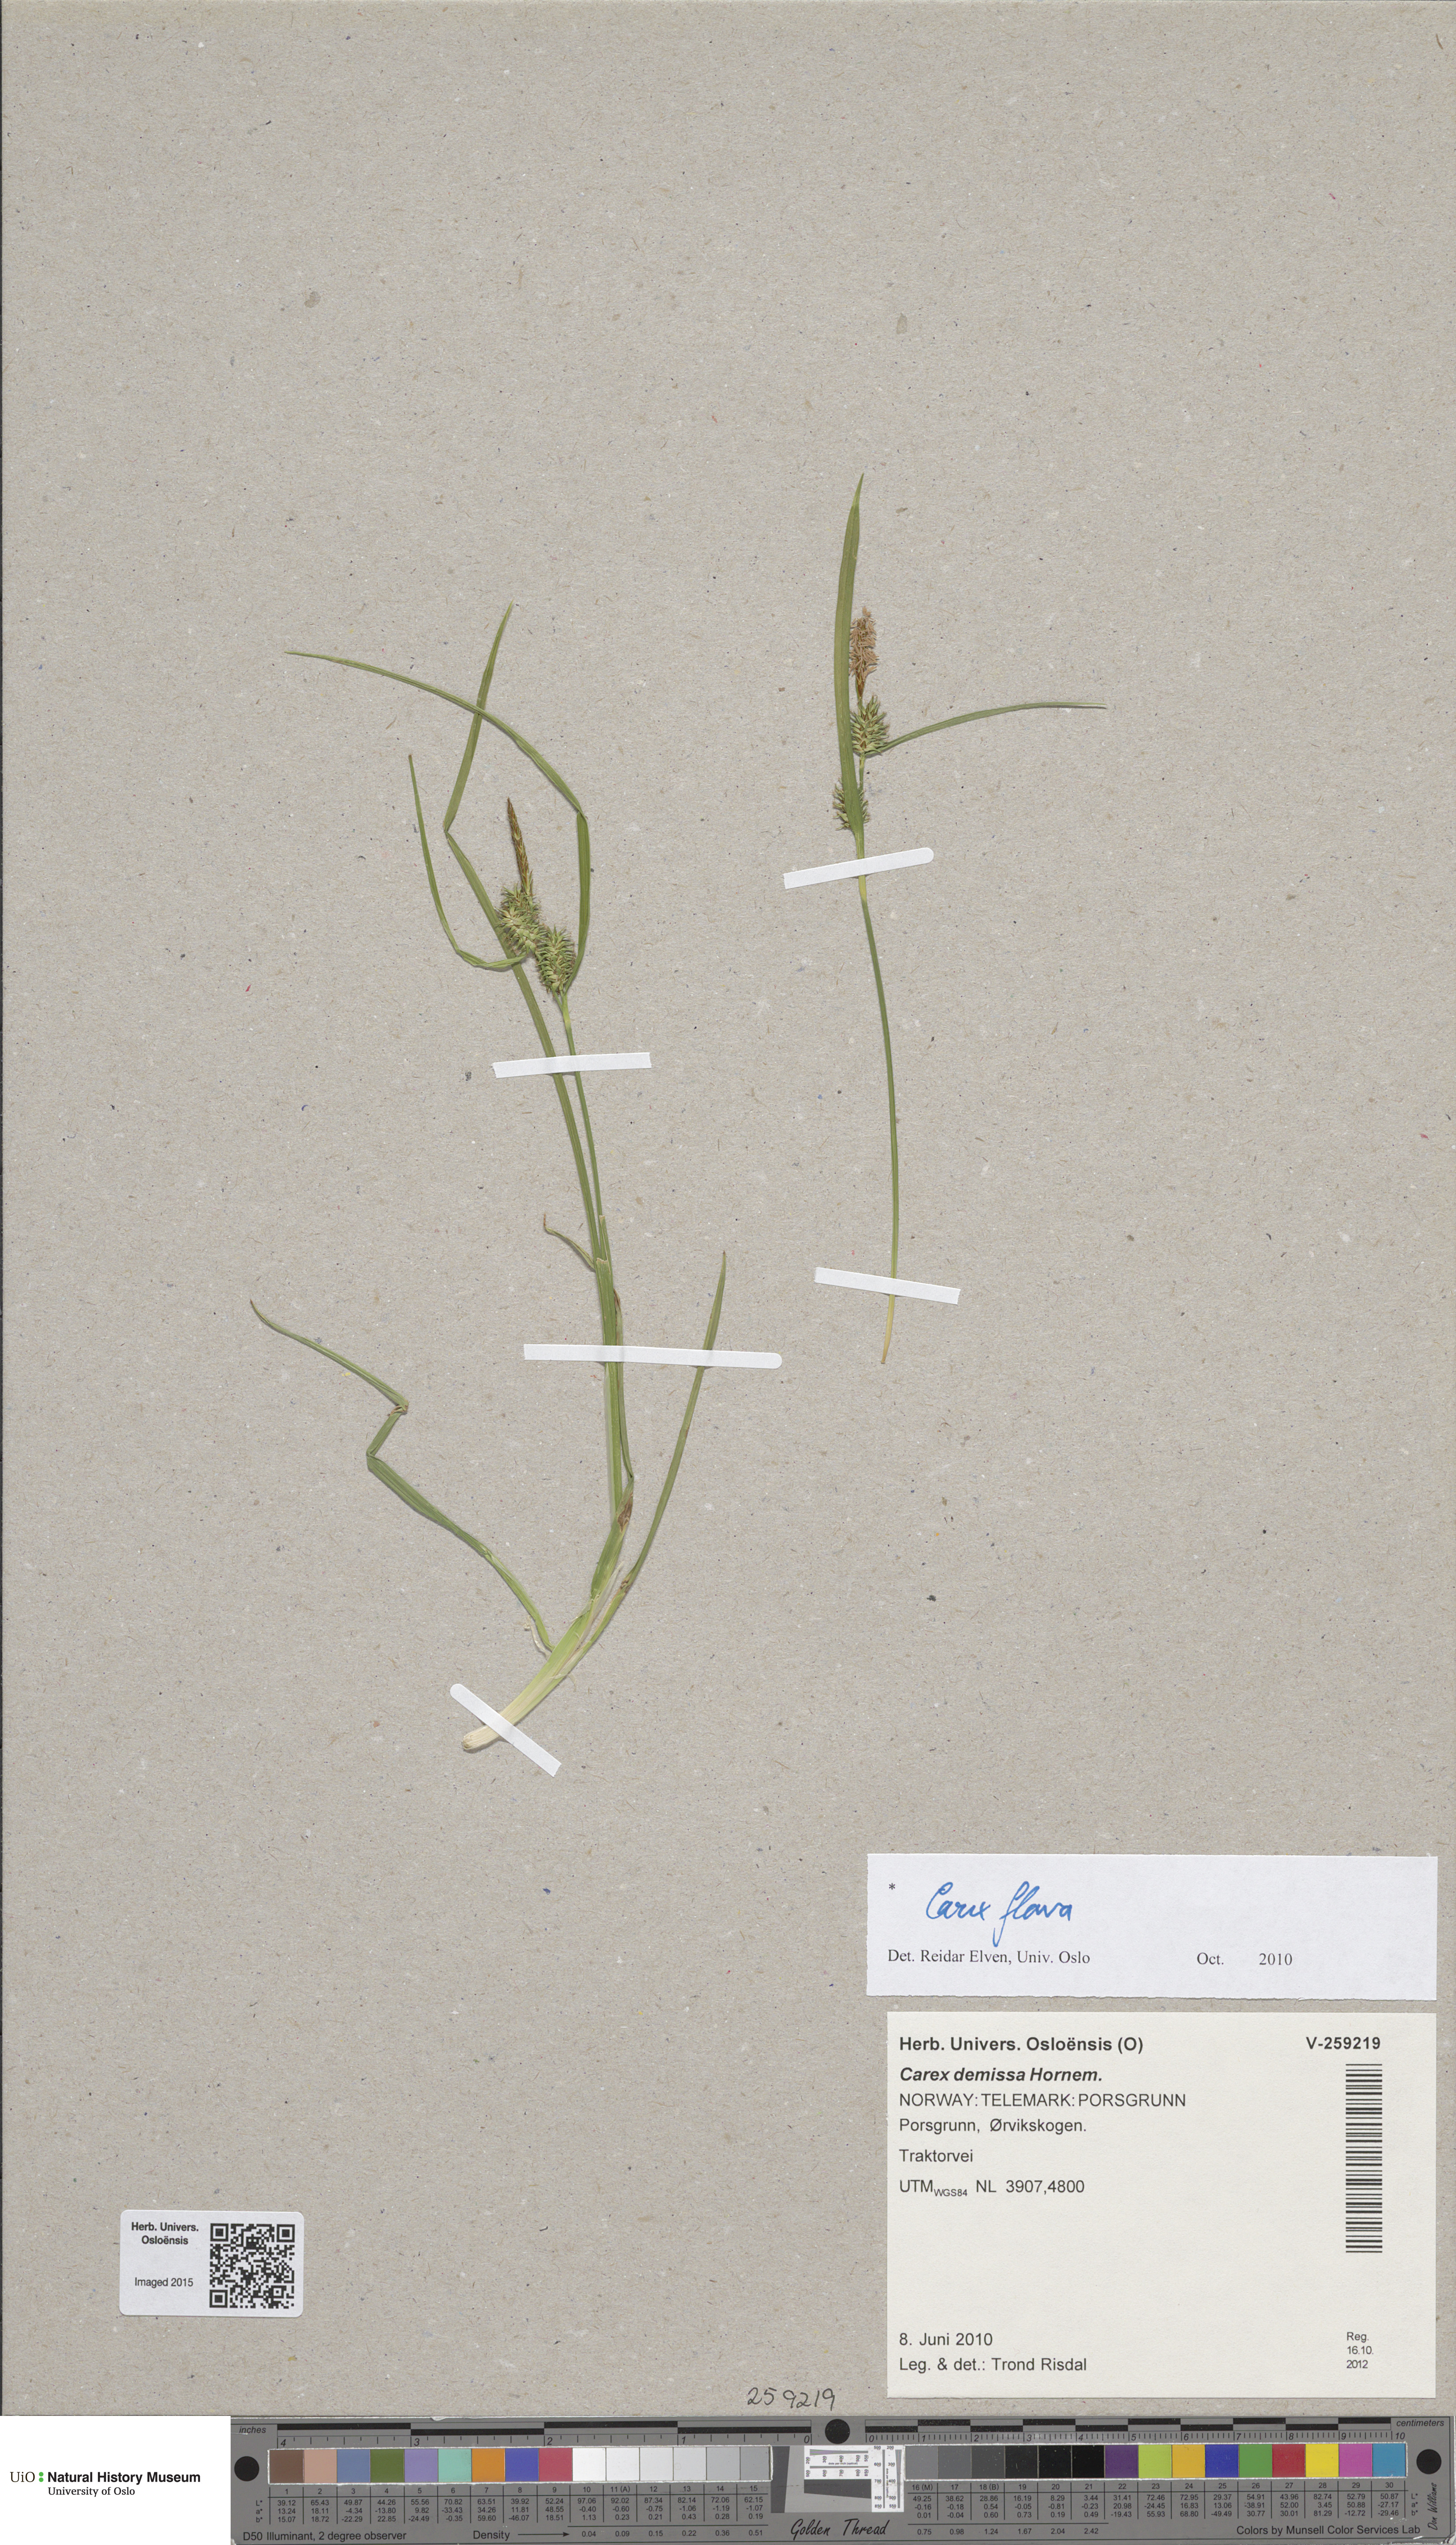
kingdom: Plantae
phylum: Tracheophyta
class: Liliopsida
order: Poales
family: Cyperaceae
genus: Carex
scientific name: Carex flava
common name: Large yellow-sedge
